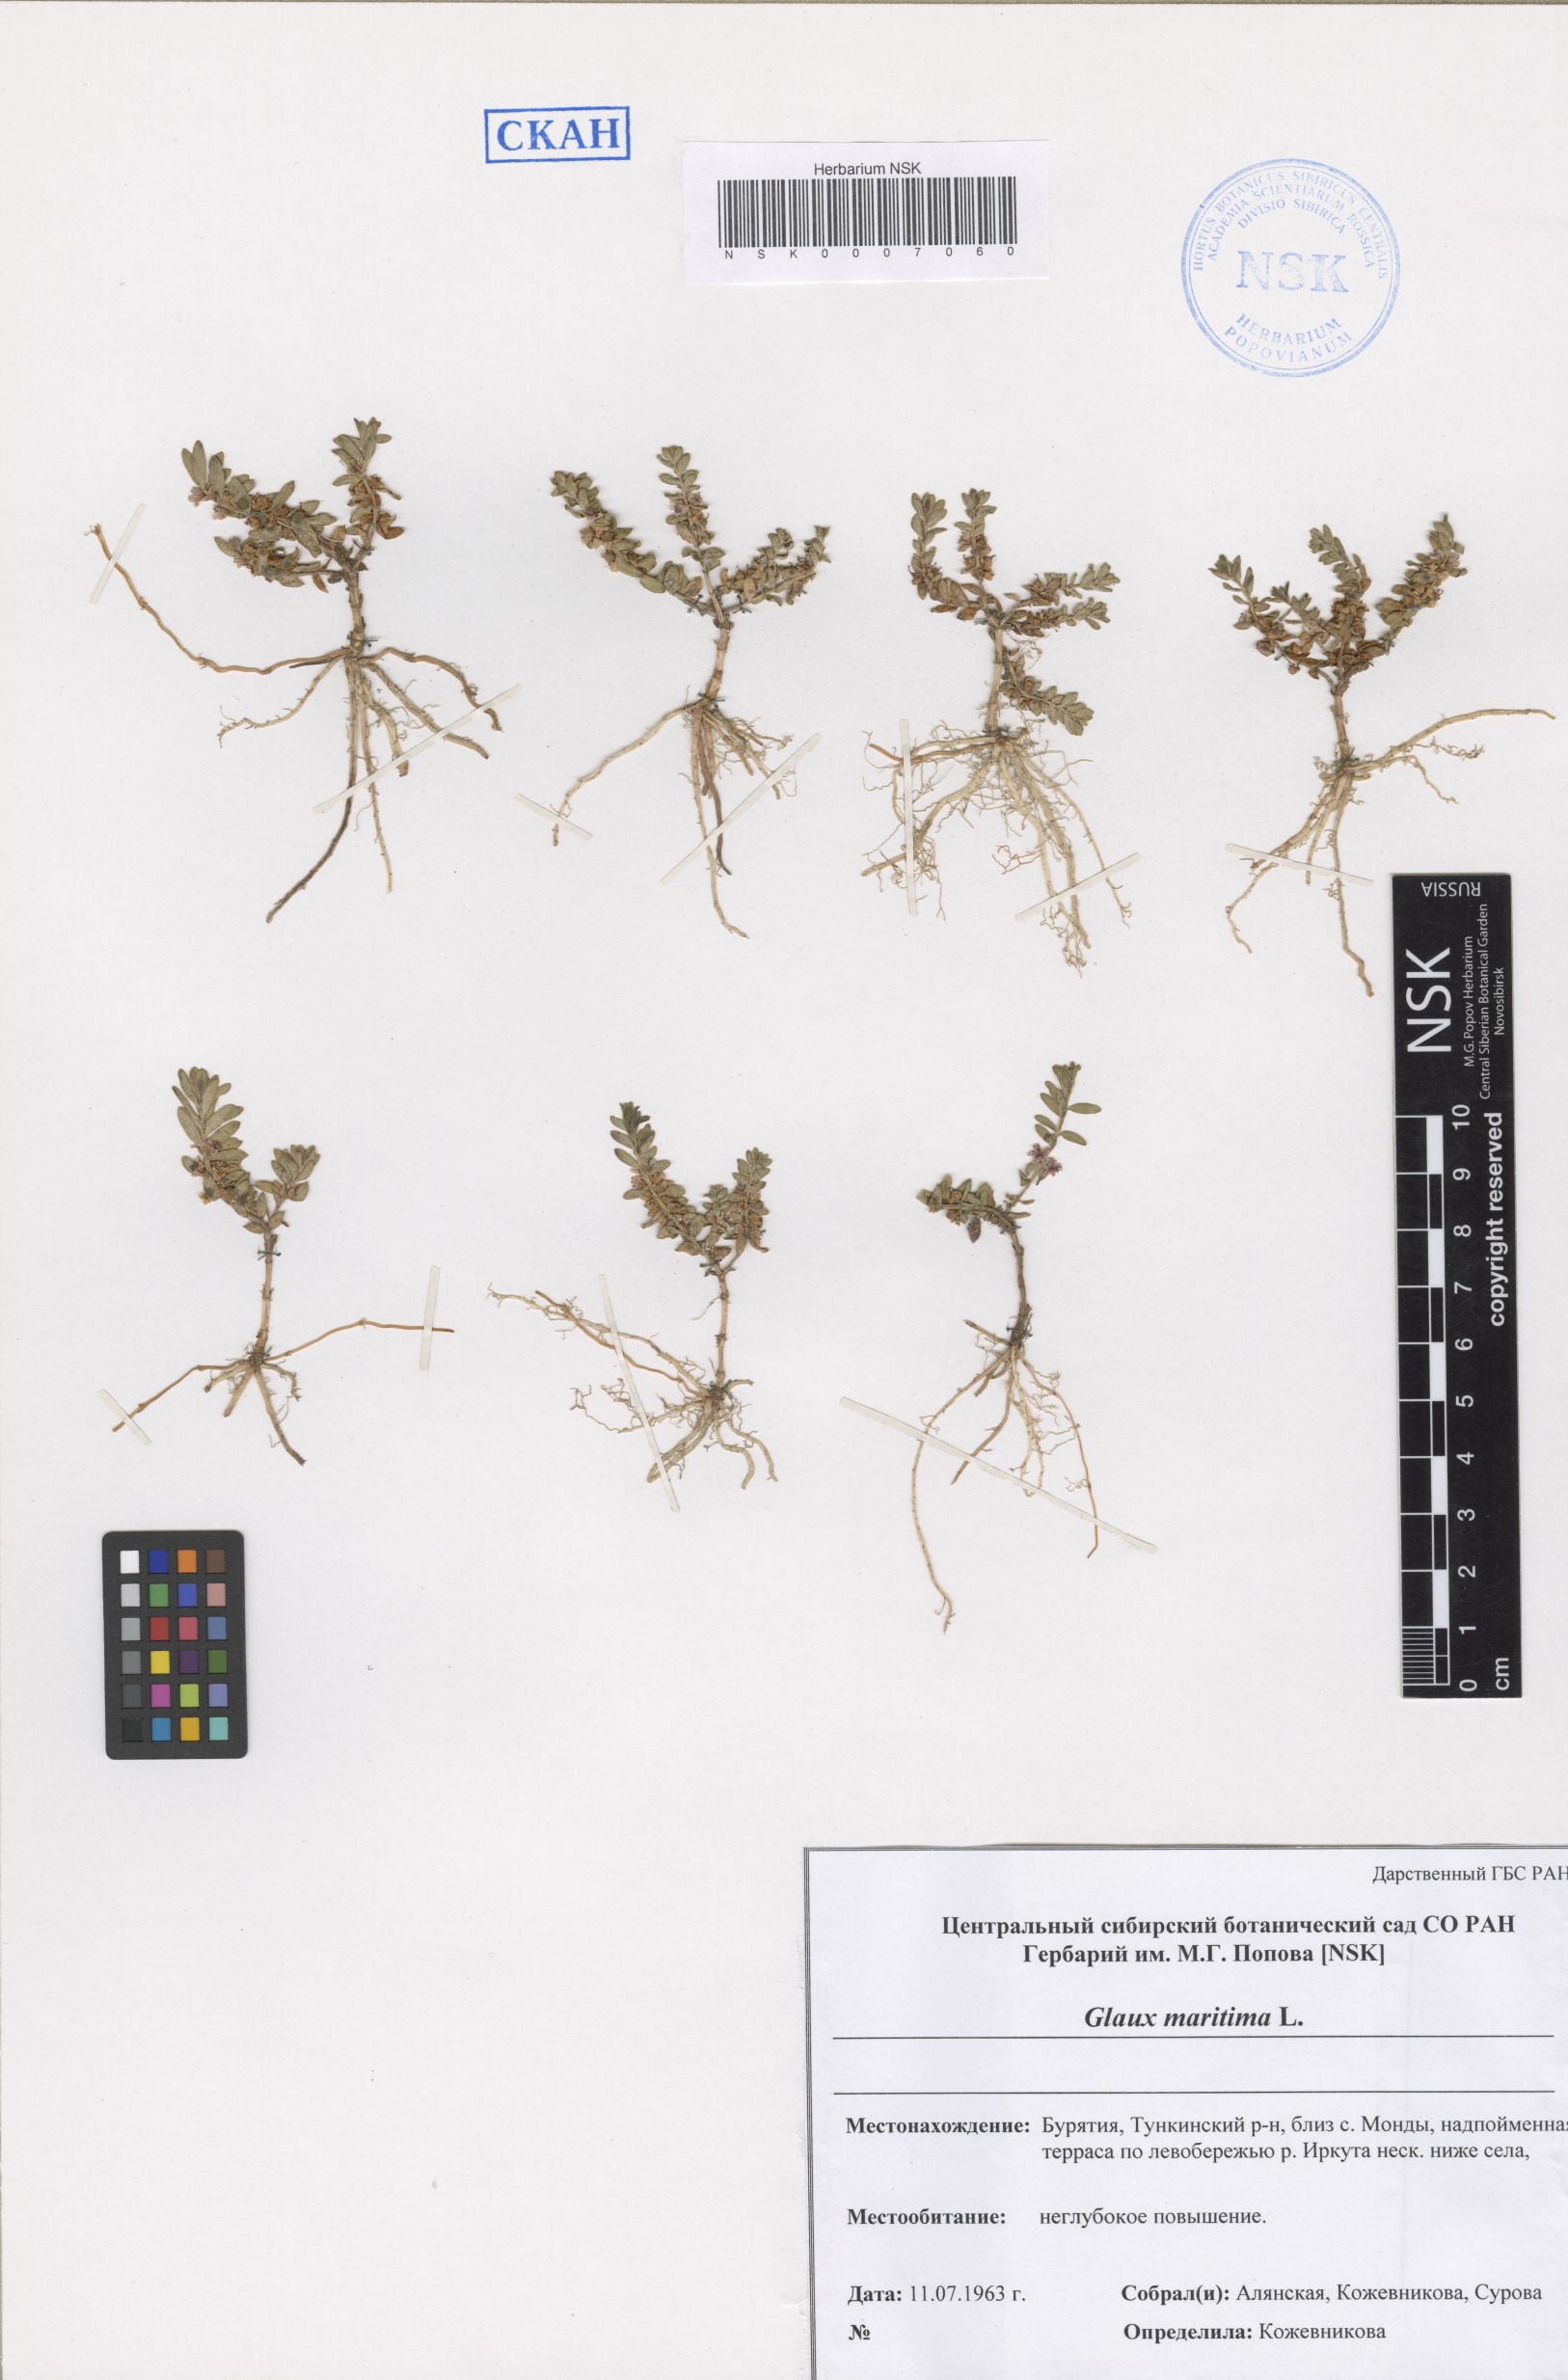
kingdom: Plantae
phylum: Tracheophyta
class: Magnoliopsida
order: Ericales
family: Primulaceae
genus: Lysimachia
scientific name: Lysimachia maritima
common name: Sea milkwort
